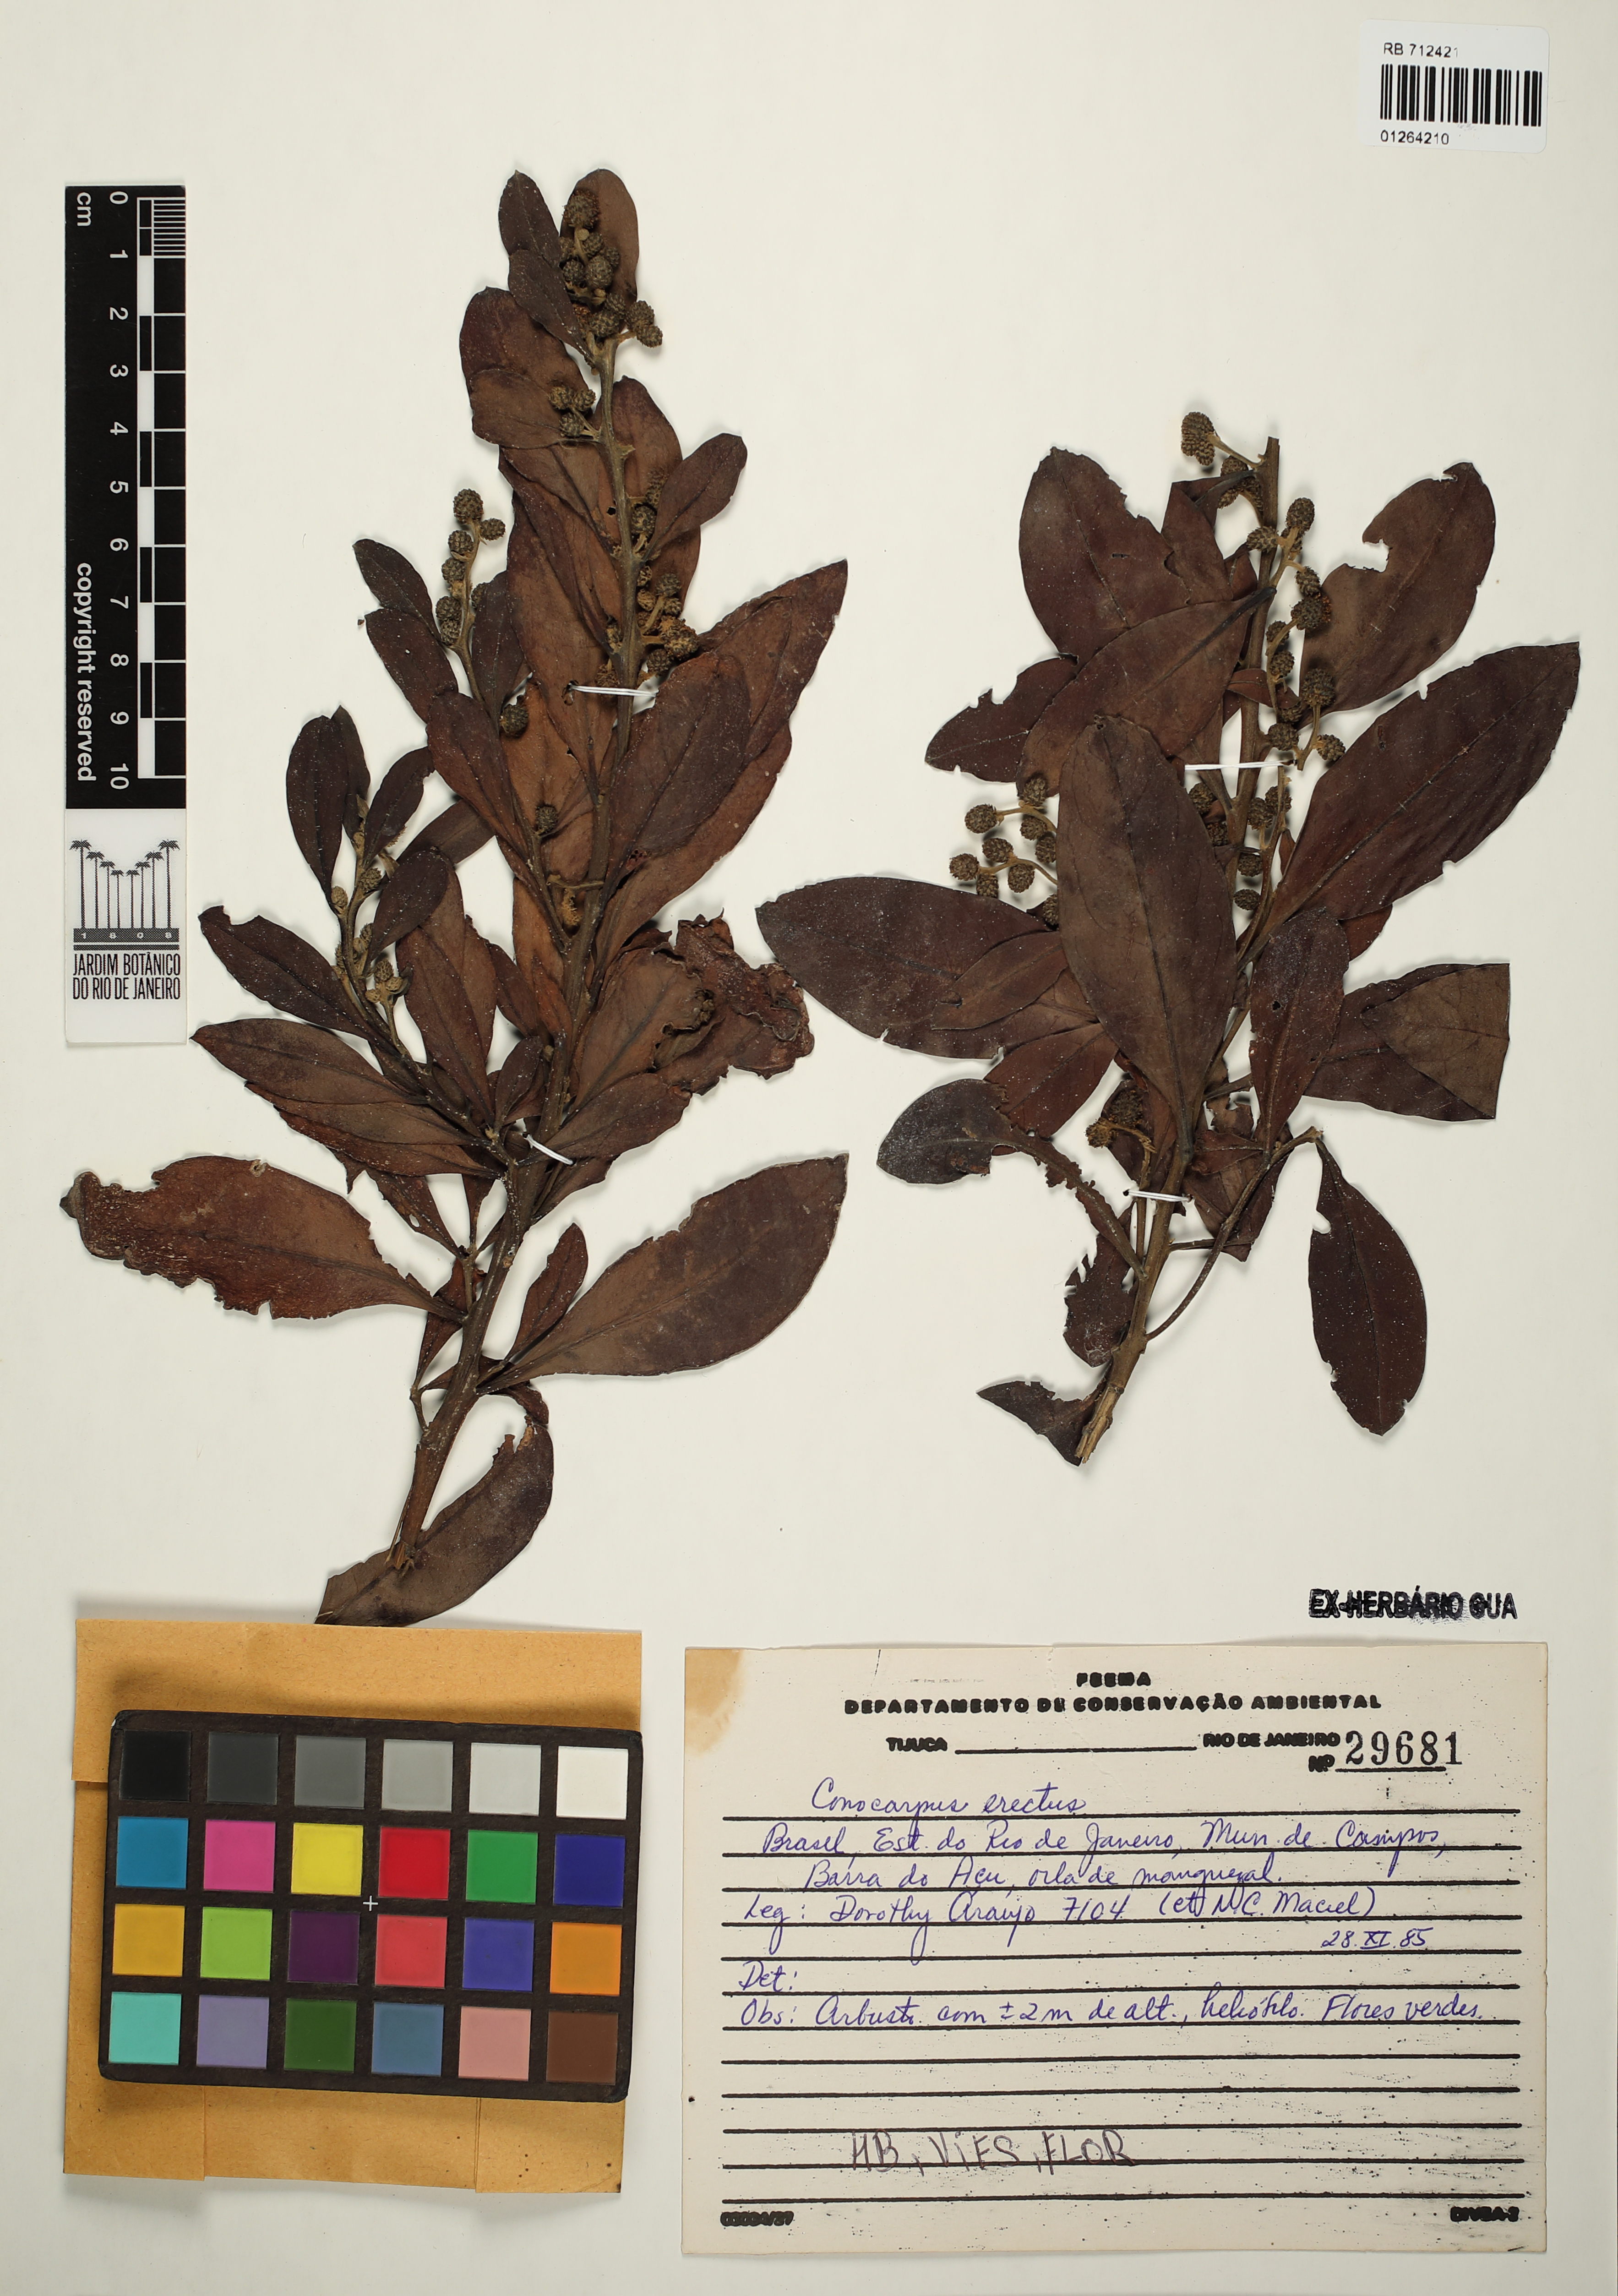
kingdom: Plantae
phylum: Tracheophyta
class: Magnoliopsida
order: Myrtales
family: Combretaceae
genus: Conocarpus
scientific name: Conocarpus erectus
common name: Button mangrove
